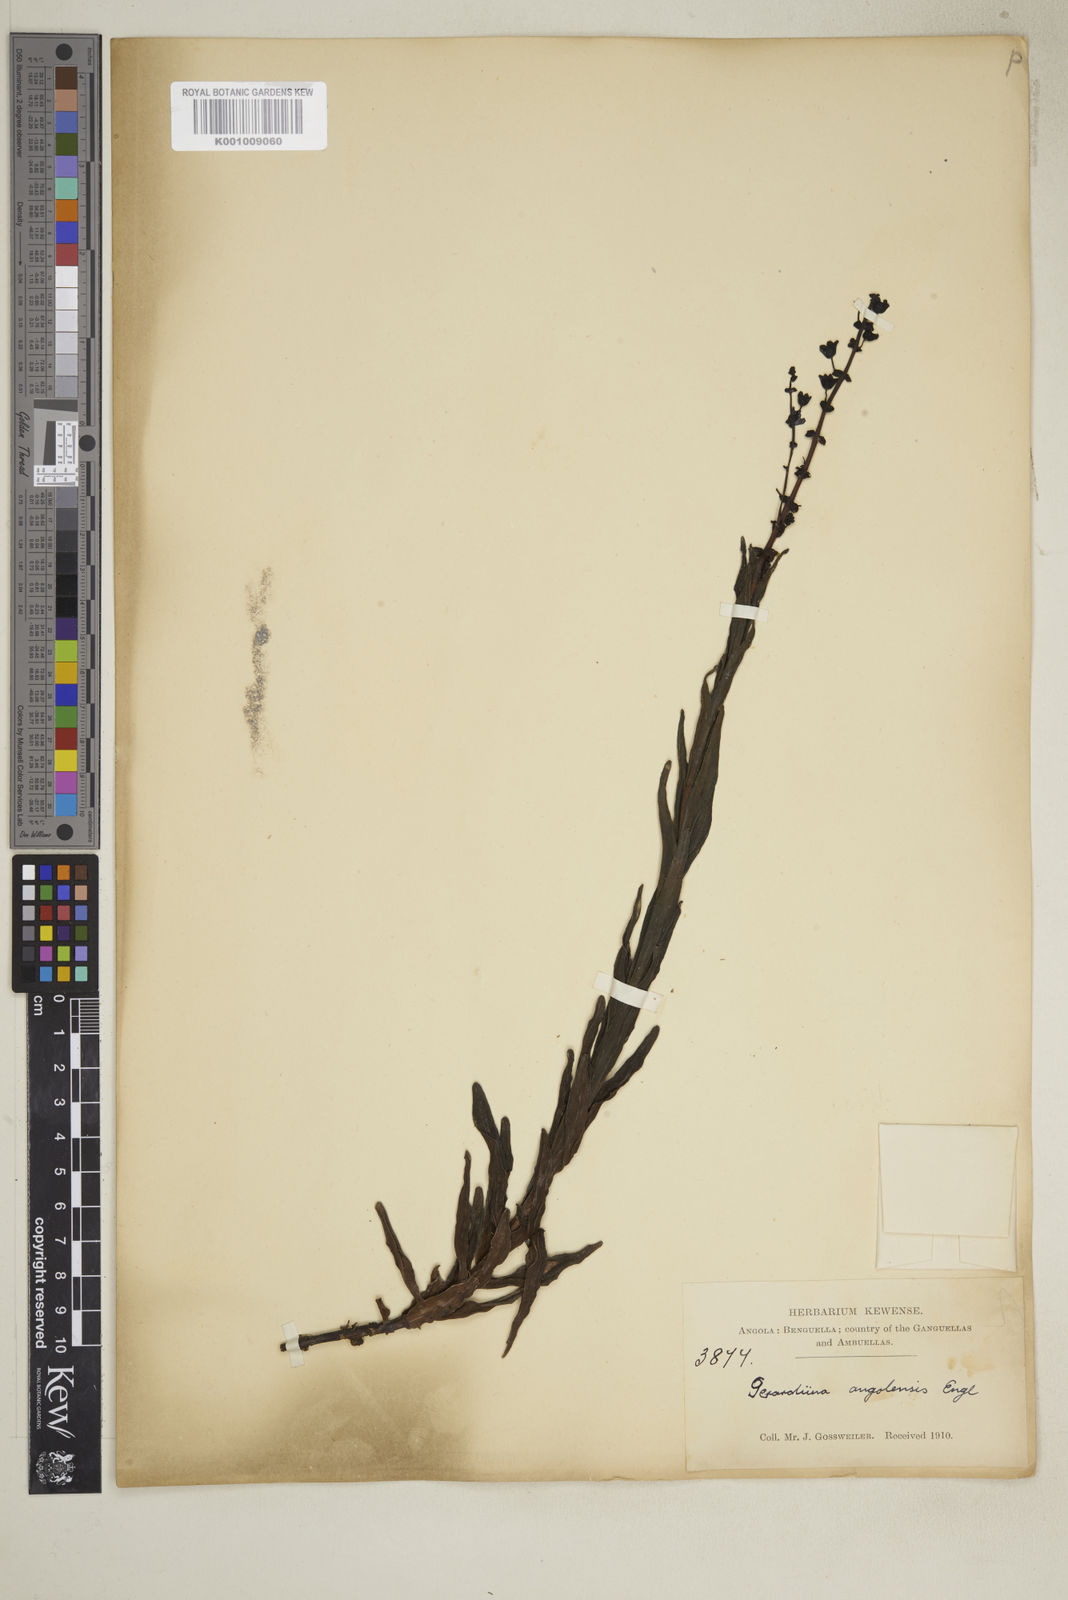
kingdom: Plantae
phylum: Tracheophyta
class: Magnoliopsida
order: Lamiales
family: Orobanchaceae
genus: Gerardiina
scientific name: Gerardiina angolensis
